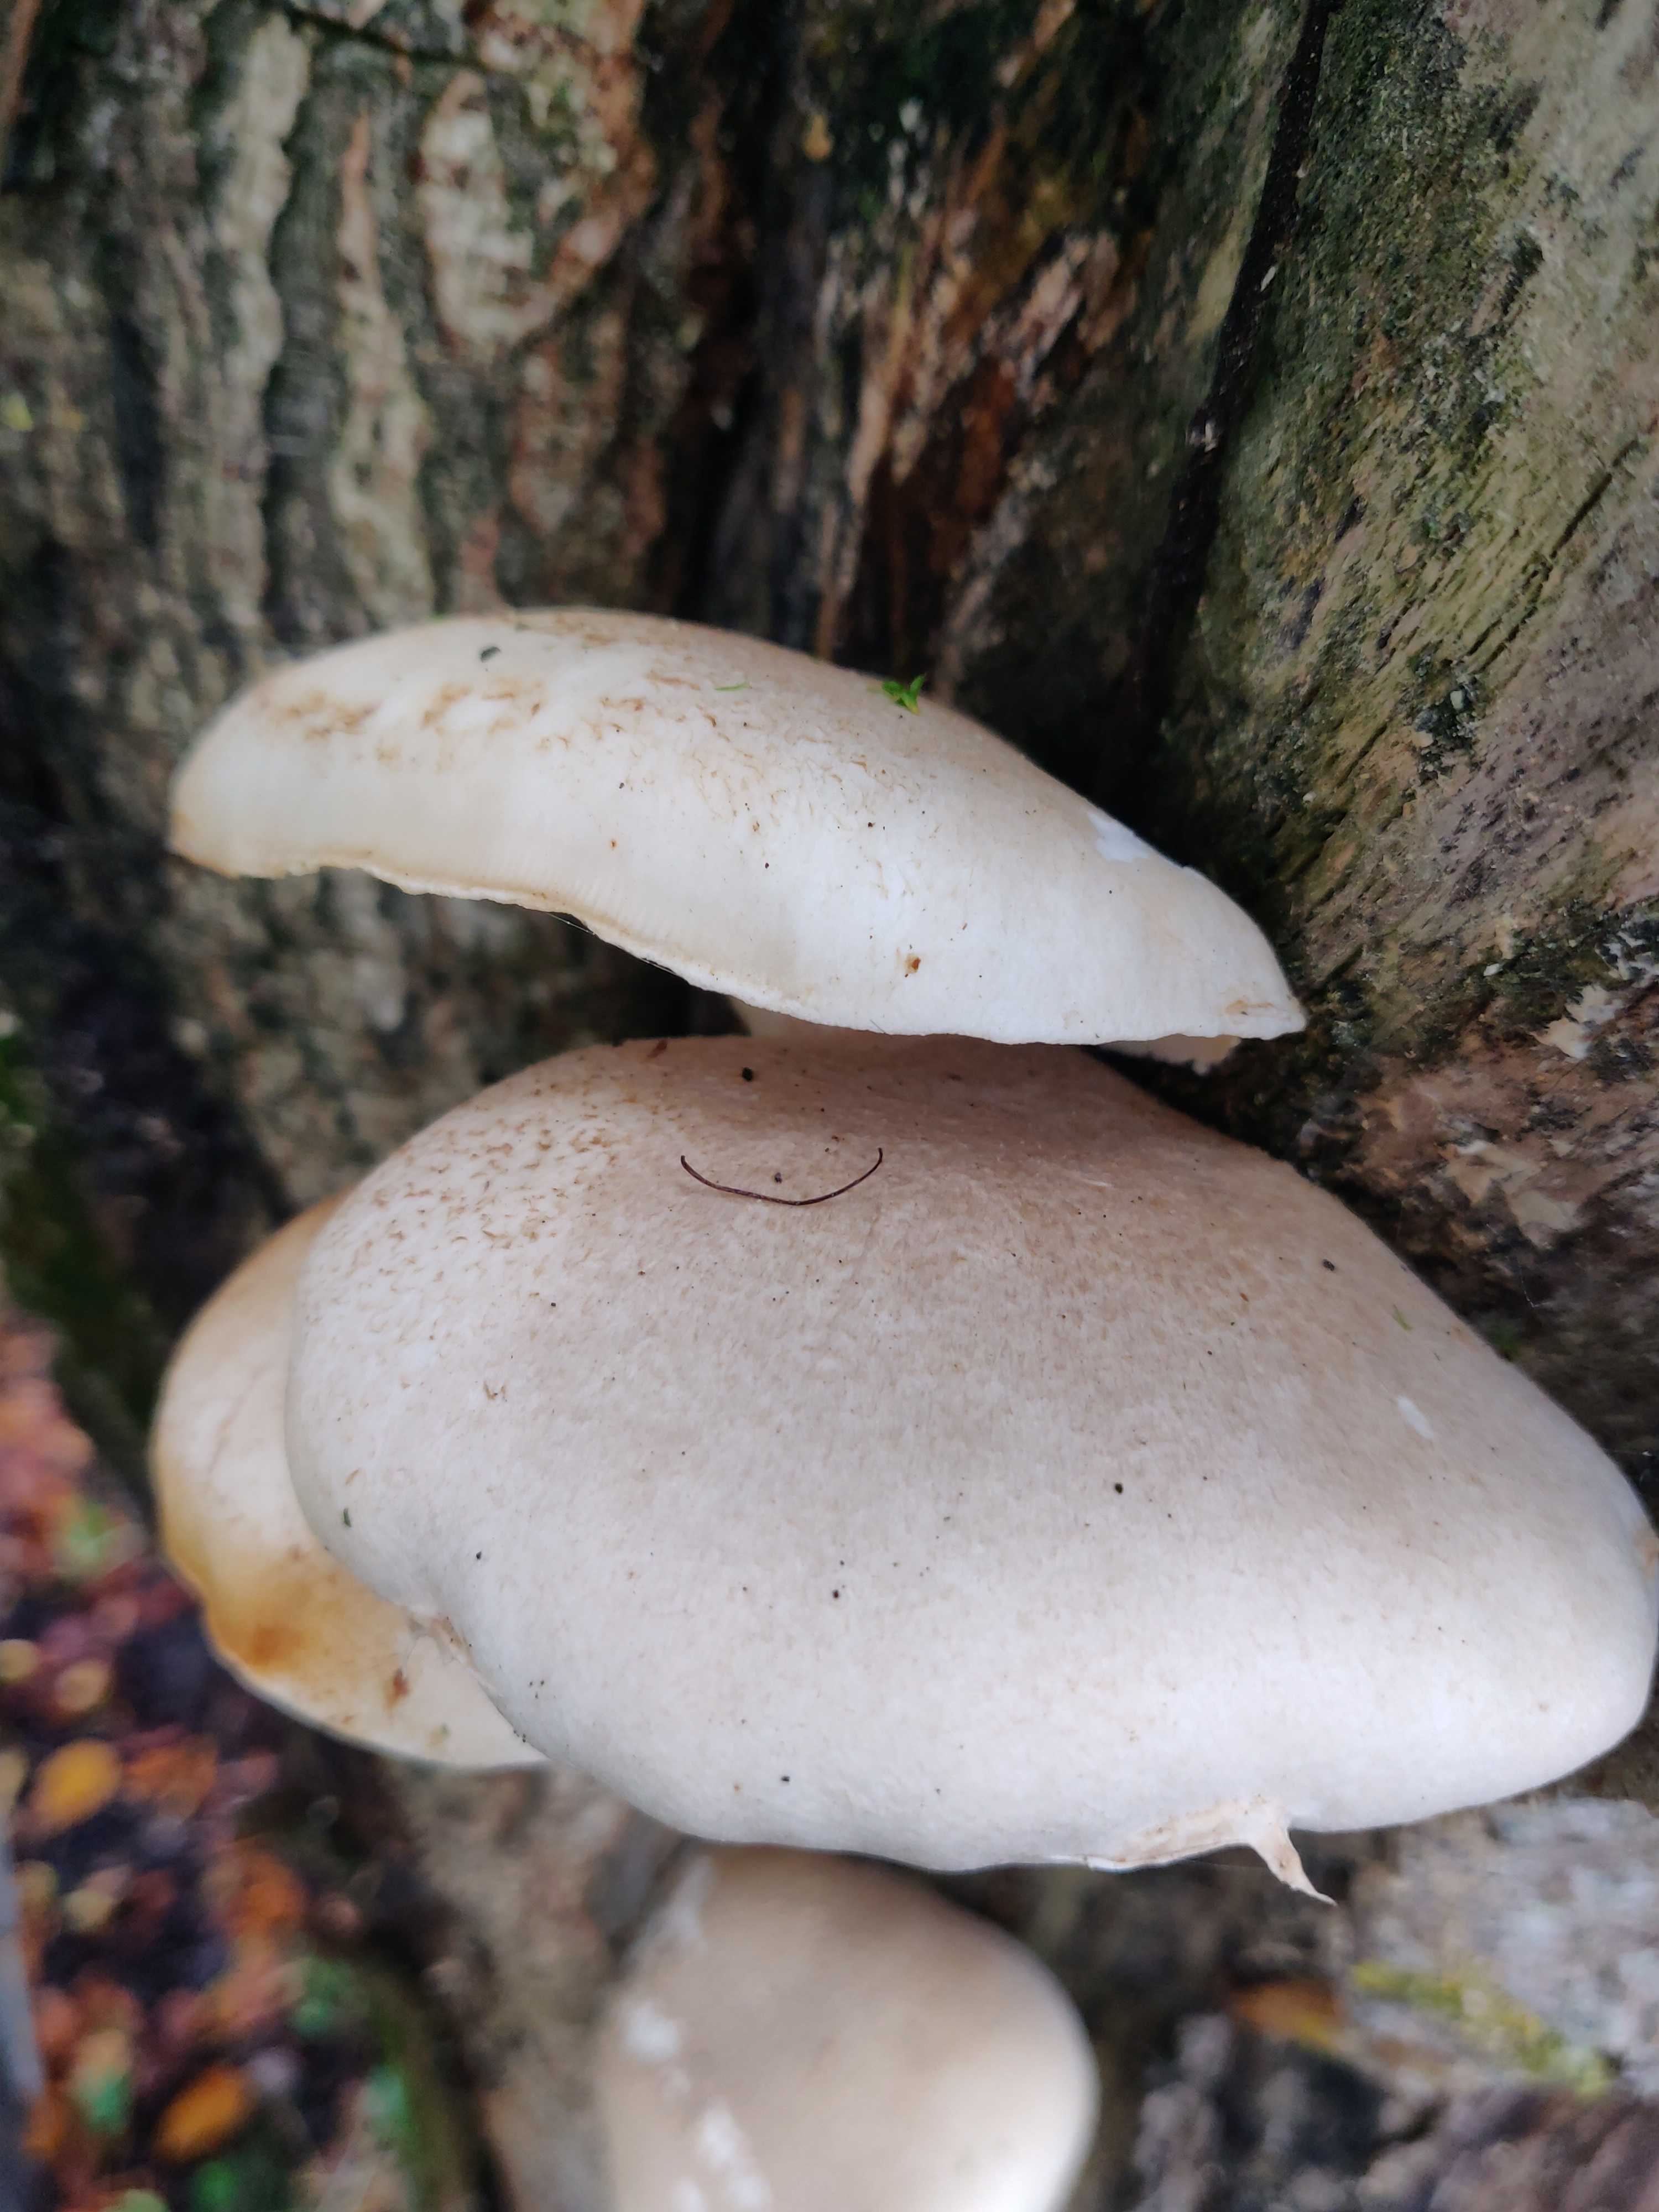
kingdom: Fungi
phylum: Basidiomycota
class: Agaricomycetes
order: Agaricales
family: Pleurotaceae
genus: Pleurotus
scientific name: Pleurotus dryinus
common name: korkagtig østershat
